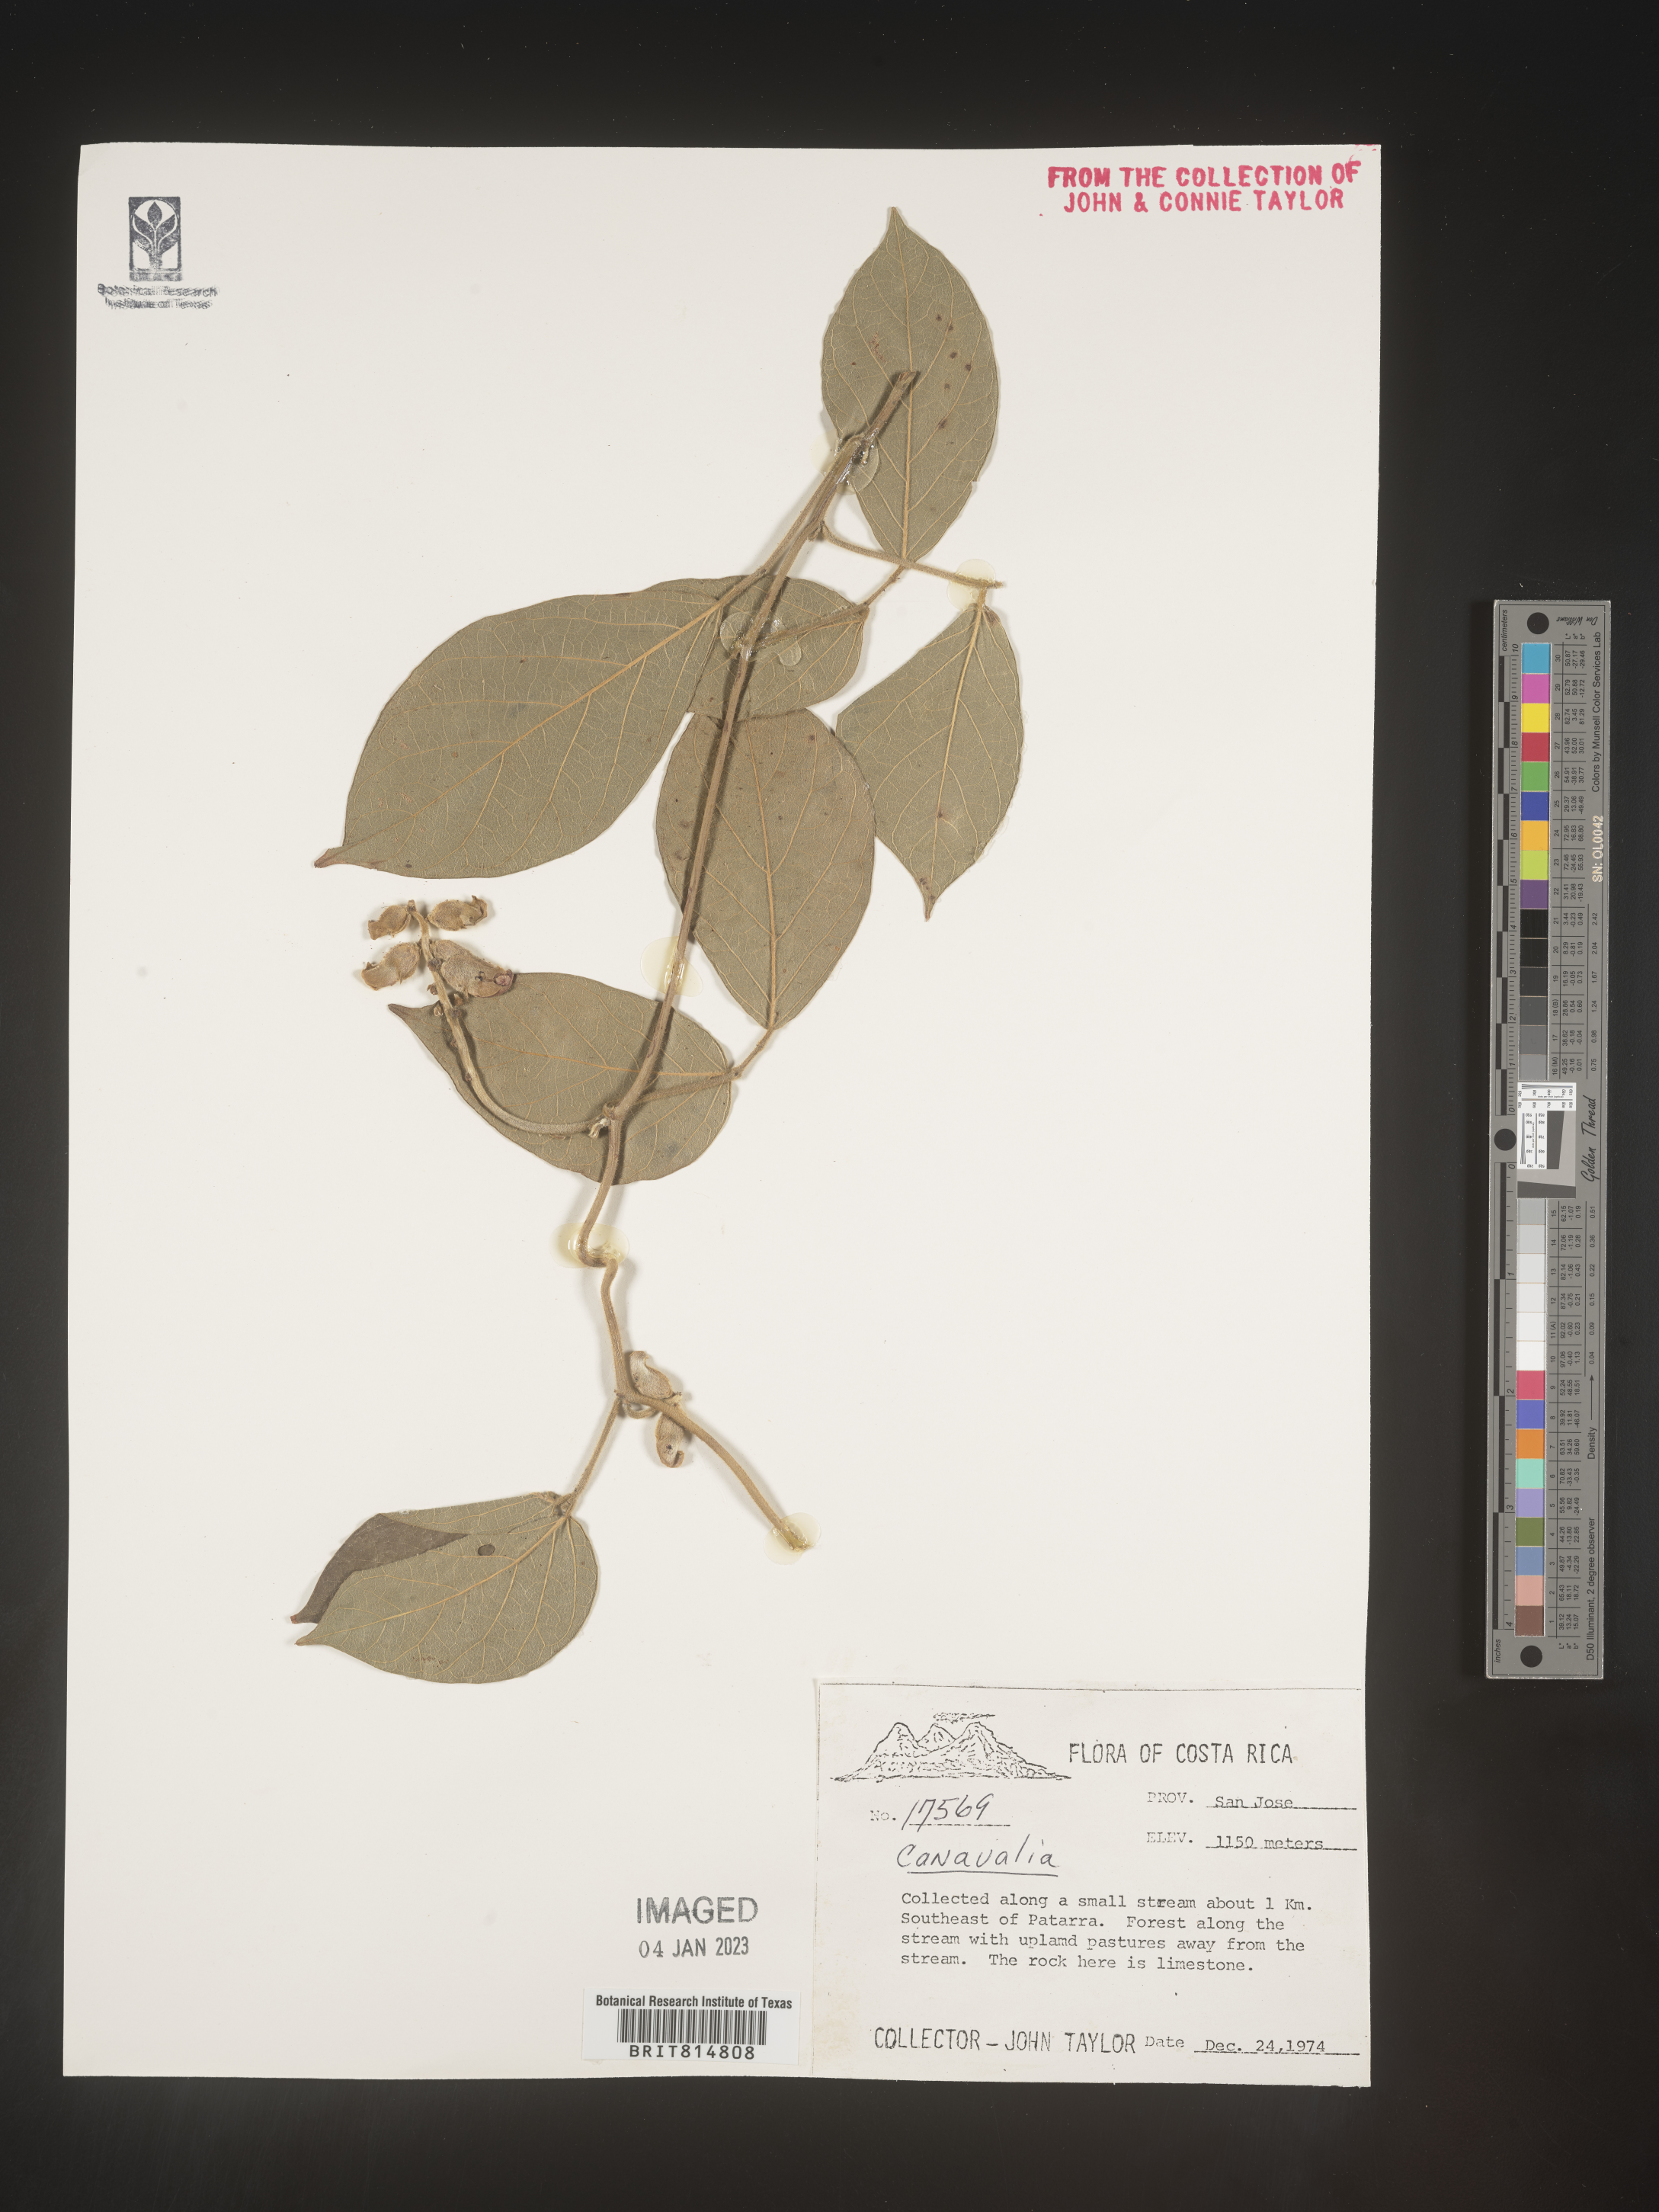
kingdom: Plantae
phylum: Tracheophyta
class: Magnoliopsida
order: Fabales
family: Fabaceae
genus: Canavalia
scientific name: Canavalia
